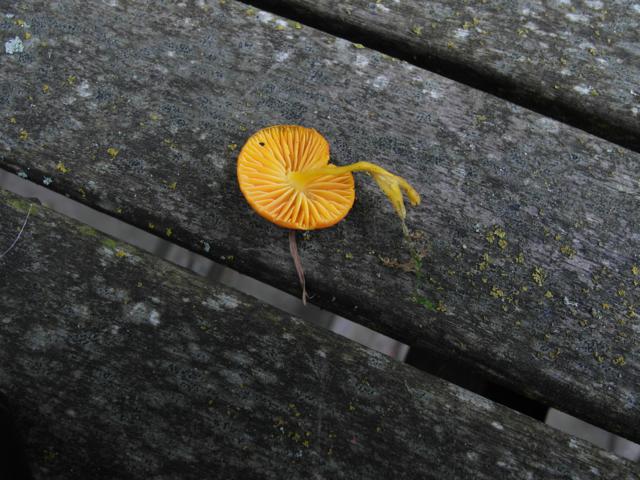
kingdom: Fungi
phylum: Basidiomycota
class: Agaricomycetes
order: Agaricales
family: Hygrophoraceae
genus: Hygrocybe
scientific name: Hygrocybe ceracea
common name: voksgul vokshat
